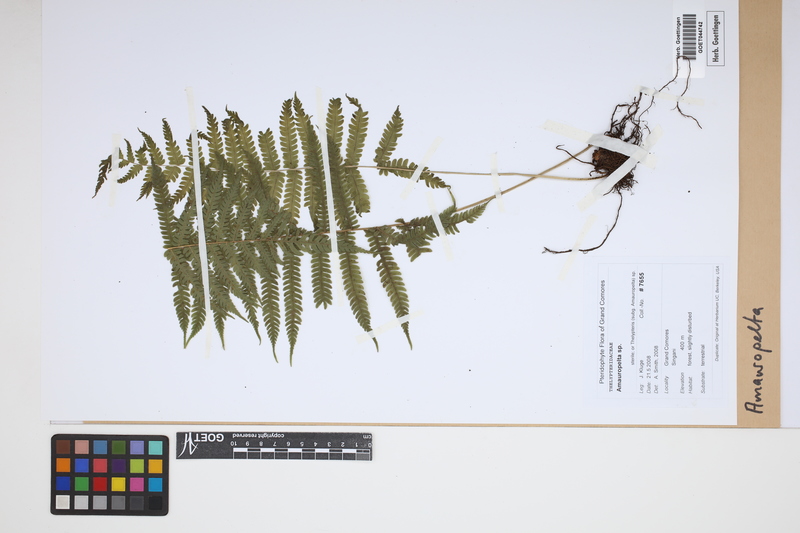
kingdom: Plantae
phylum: Tracheophyta
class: Polypodiopsida
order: Polypodiales
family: Thelypteridaceae
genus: Amauropelta
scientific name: Amauropelta
